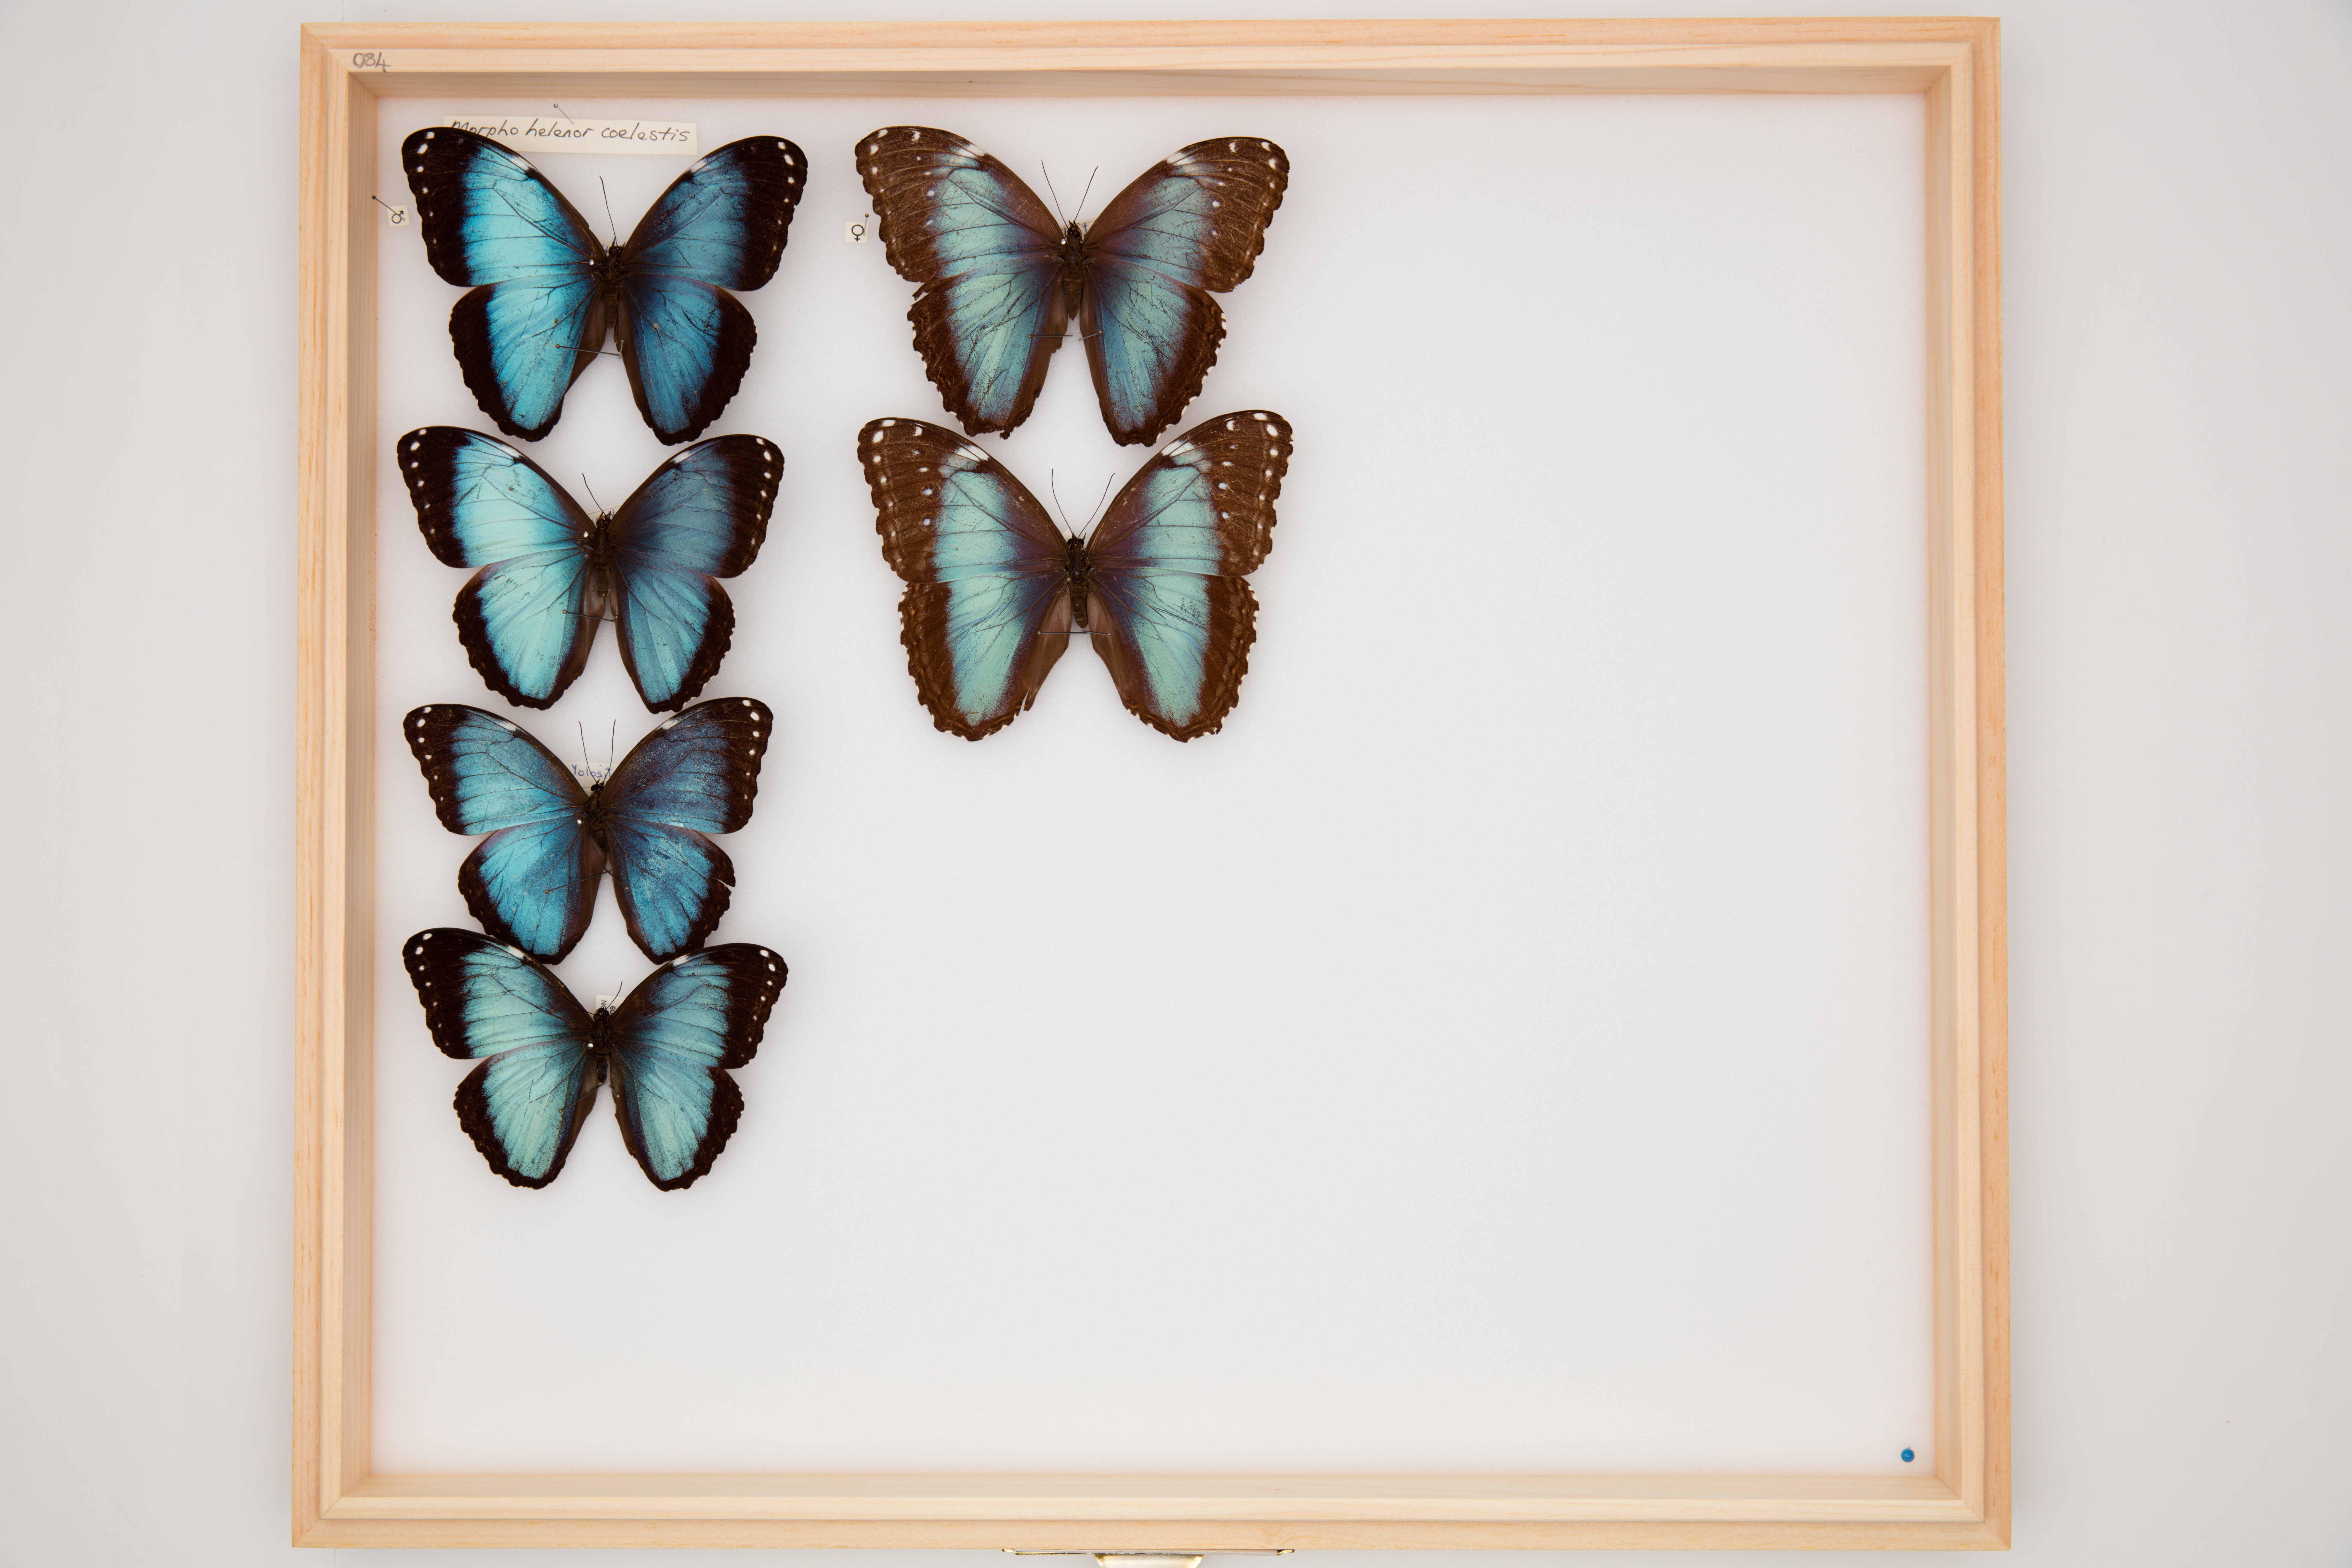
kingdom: Animalia
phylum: Arthropoda
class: Insecta
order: Lepidoptera
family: Nymphalidae
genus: Morpho
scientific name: Morpho helenor
